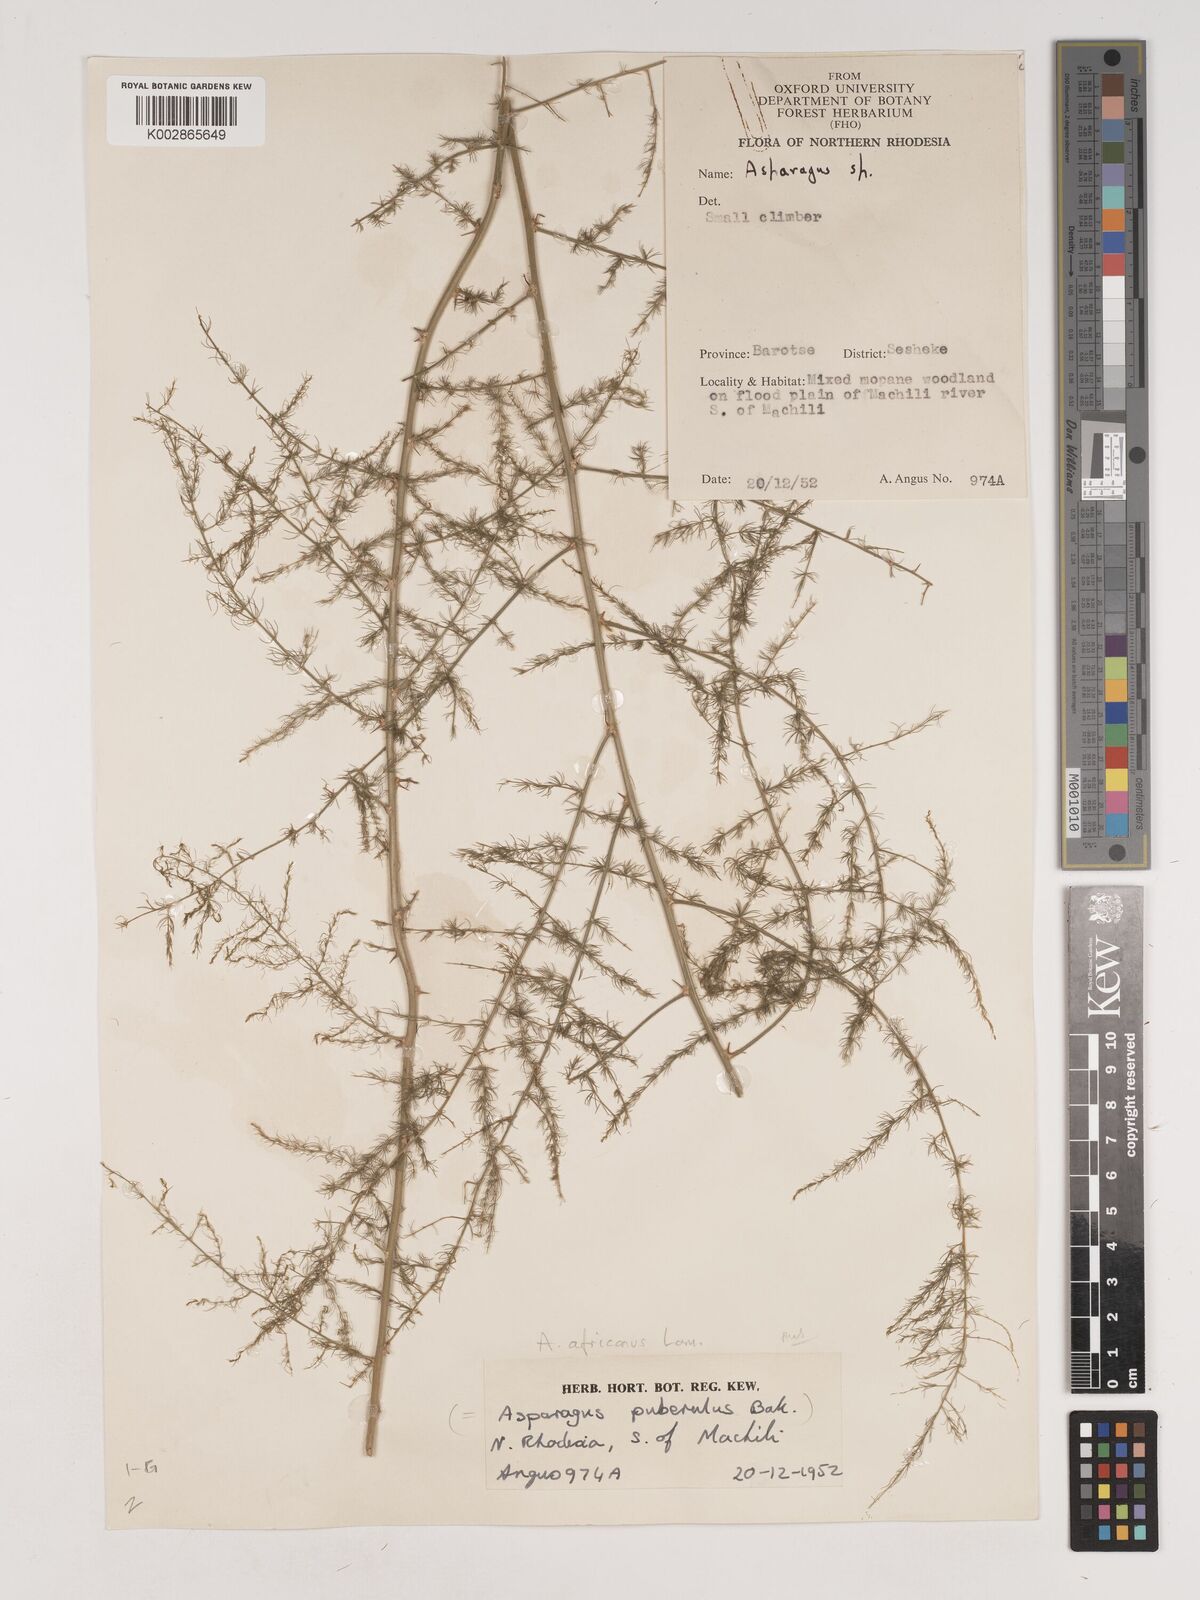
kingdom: Plantae
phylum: Tracheophyta
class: Liliopsida
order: Asparagales
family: Asparagaceae
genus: Asparagus
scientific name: Asparagus africanus
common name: Asparagus-fern
